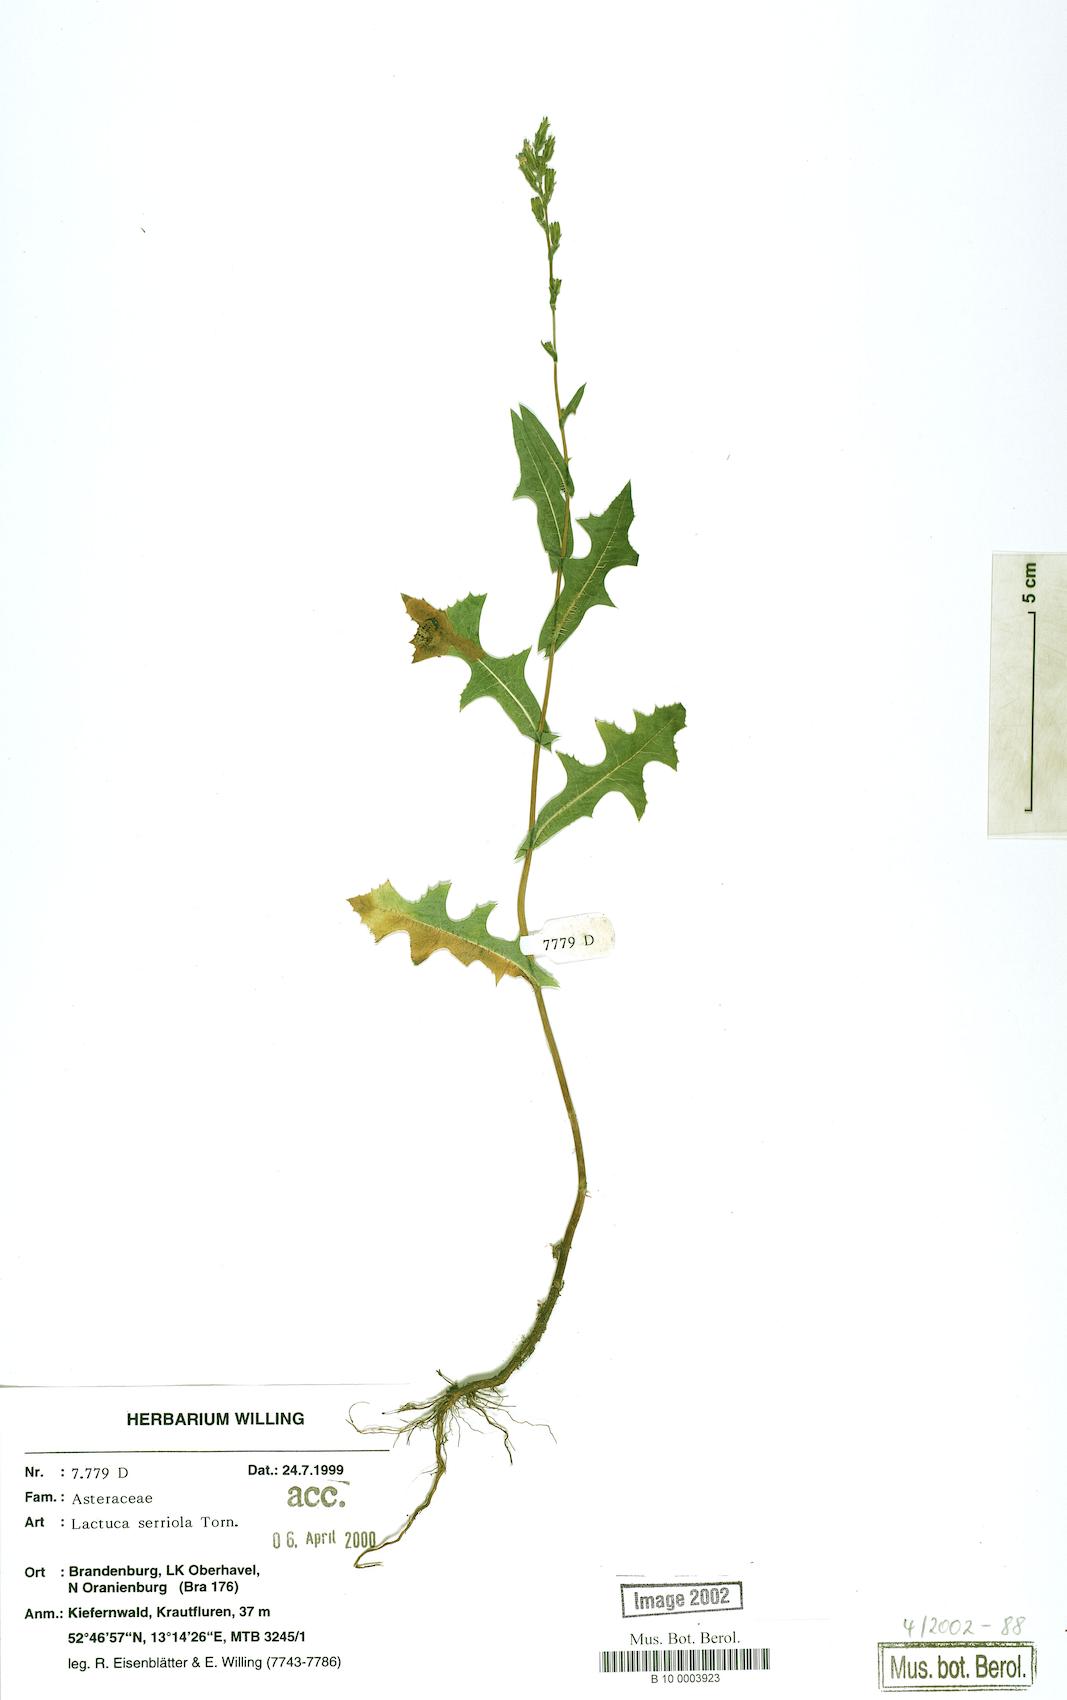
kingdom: Plantae
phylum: Tracheophyta
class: Magnoliopsida
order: Asterales
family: Asteraceae
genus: Lactuca
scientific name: Lactuca serriola
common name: Prickly lettuce
